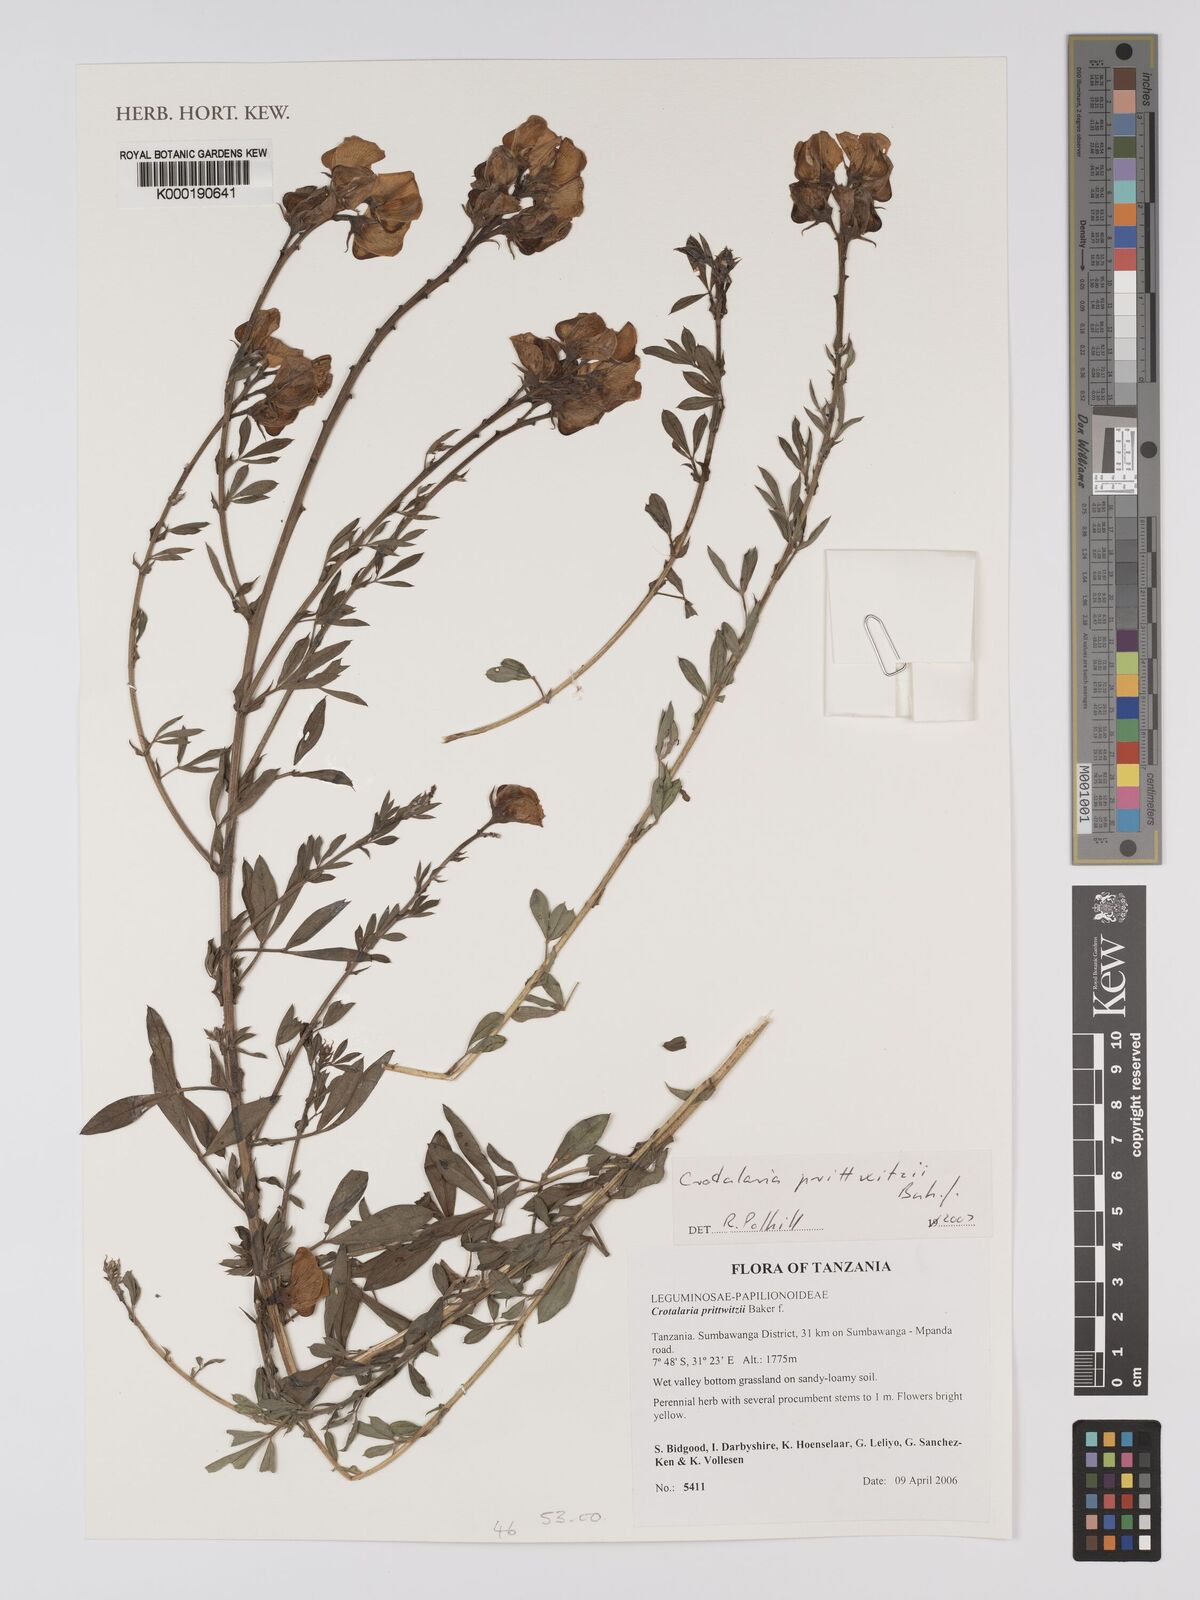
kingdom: Plantae
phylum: Tracheophyta
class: Magnoliopsida
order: Fabales
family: Fabaceae
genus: Crotalaria
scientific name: Crotalaria prittwitzii
